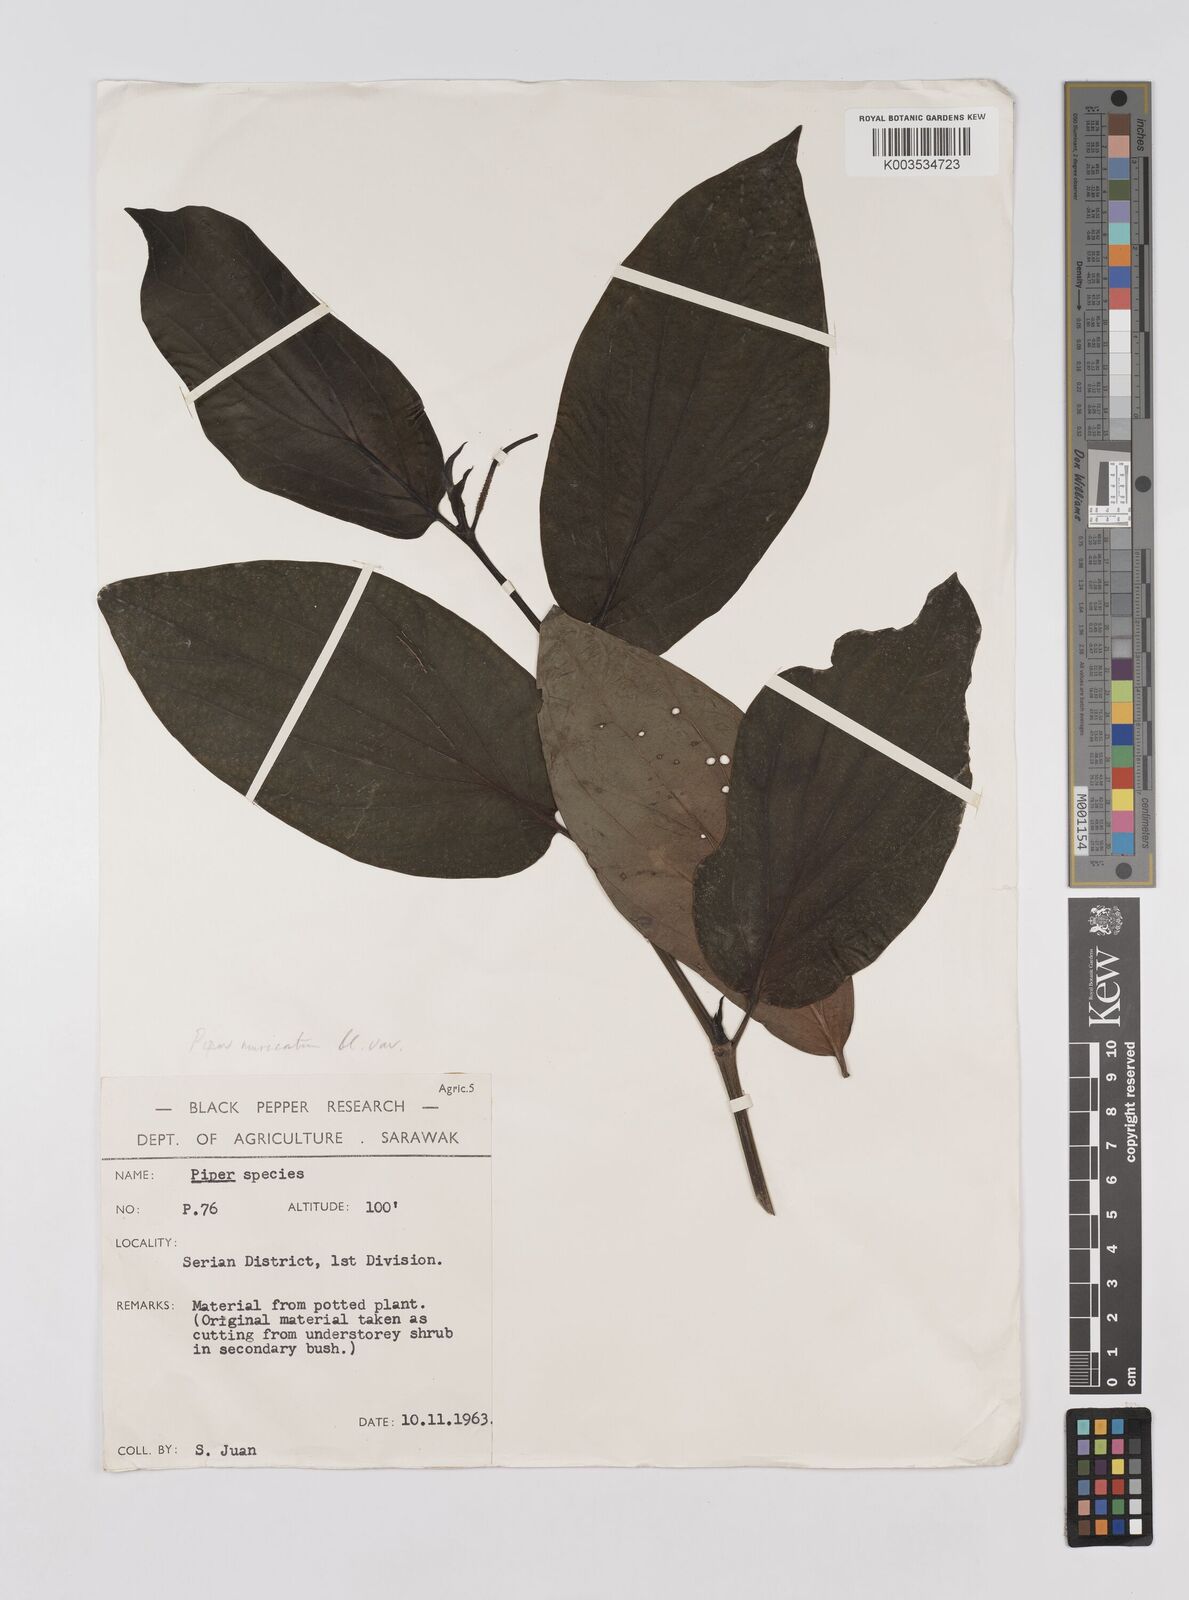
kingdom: Plantae
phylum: Tracheophyta
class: Magnoliopsida
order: Piperales
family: Piperaceae
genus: Piper
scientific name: Piper muricatum
